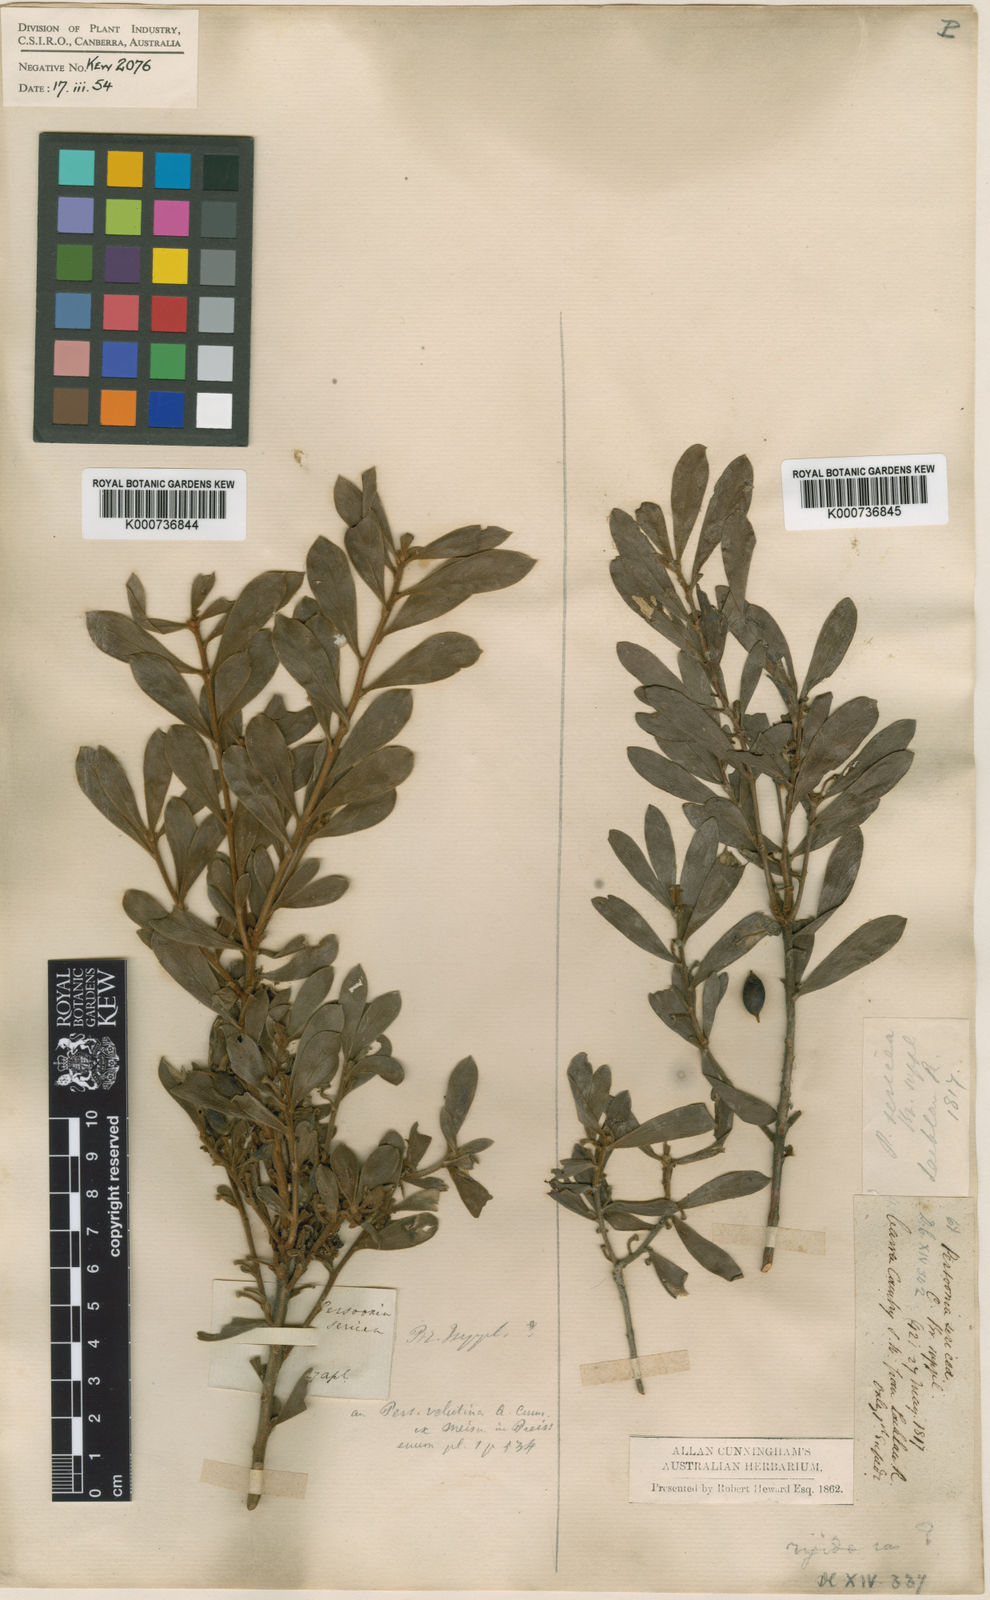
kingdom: Plantae
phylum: Tracheophyta
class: Magnoliopsida
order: Proteales
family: Proteaceae
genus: Persoonia
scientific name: Persoonia sericea
